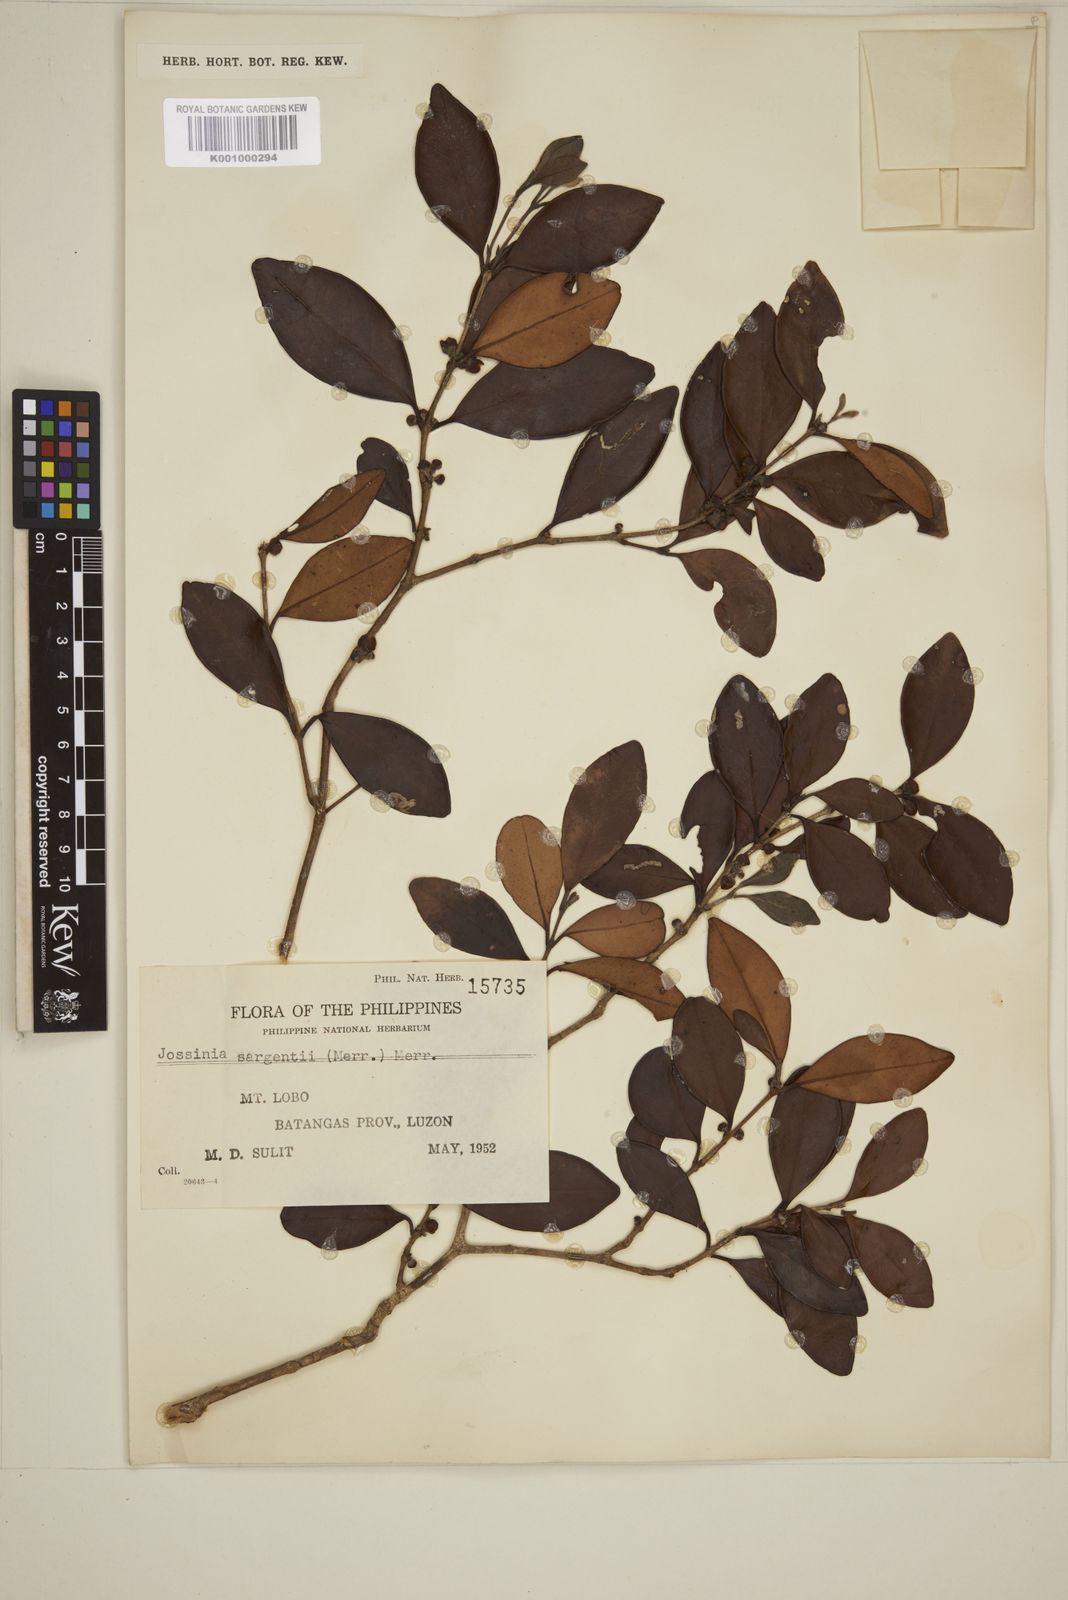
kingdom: Plantae
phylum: Tracheophyta
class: Magnoliopsida
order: Myrtales
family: Myrtaceae
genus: Eugenia
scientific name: Eugenia sargentii
